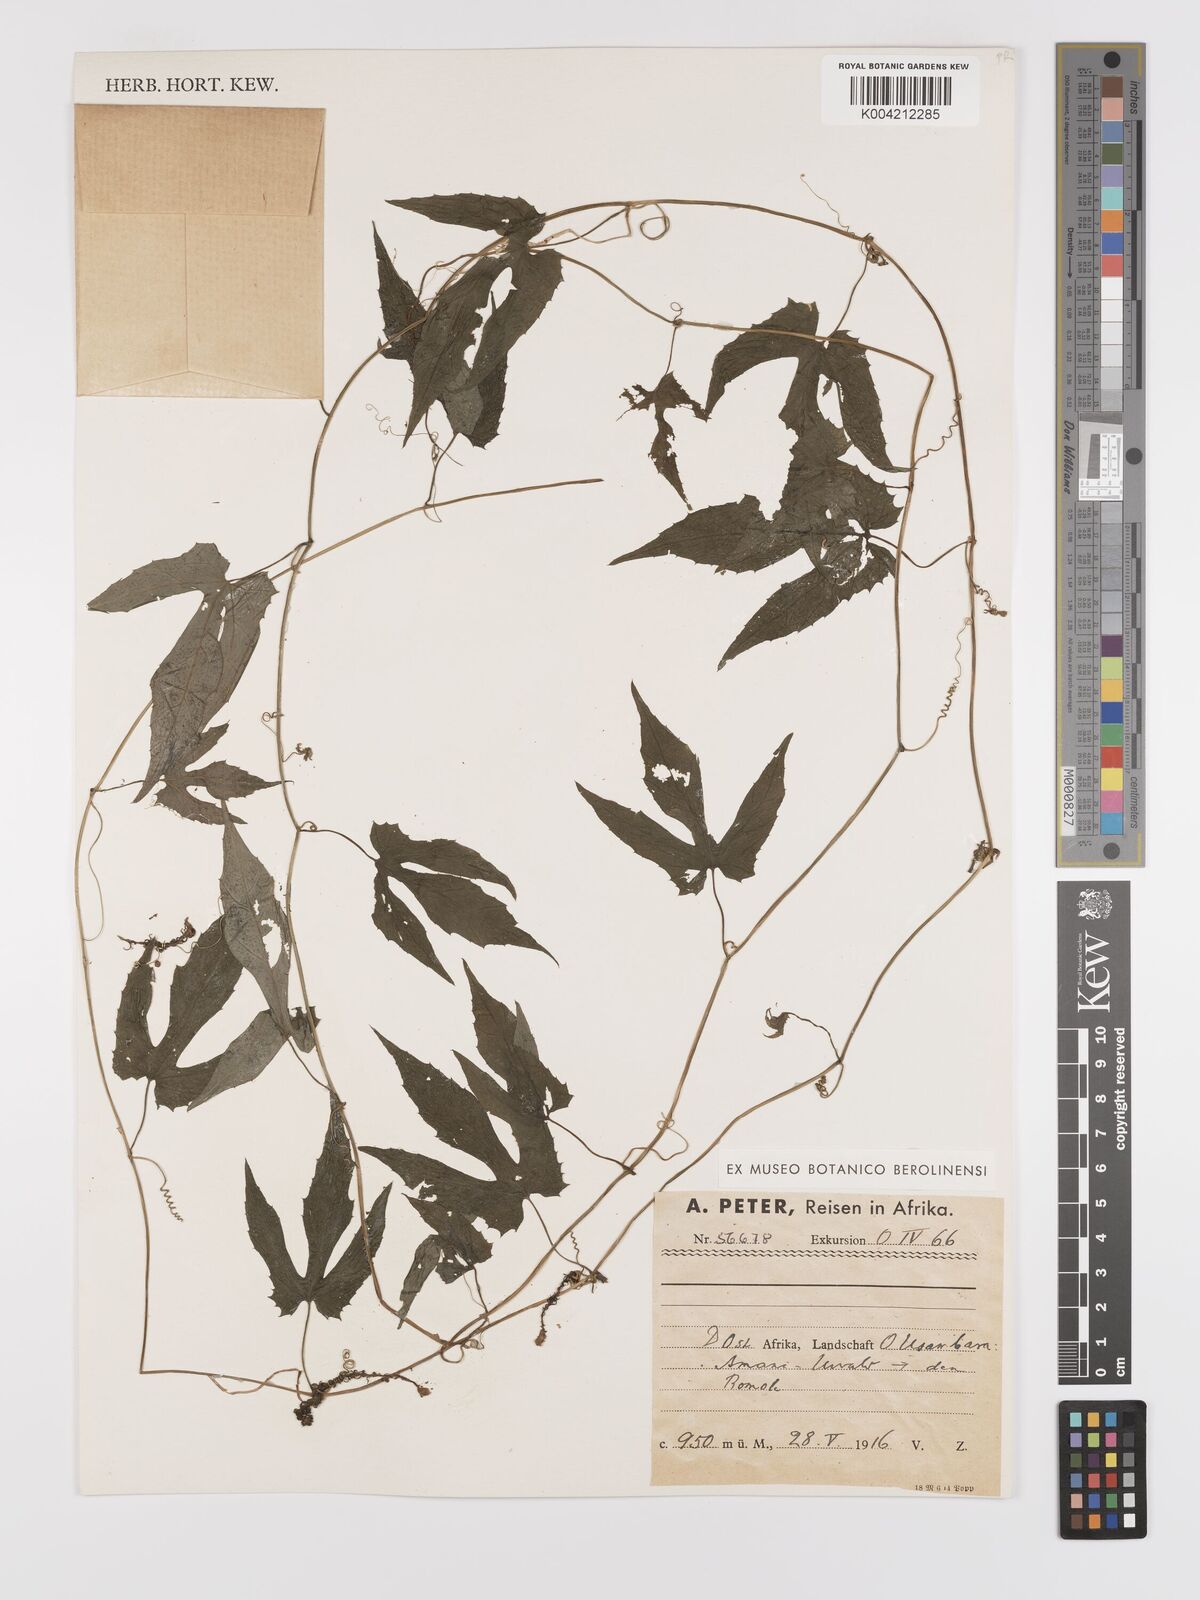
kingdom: Plantae
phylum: Tracheophyta
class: Magnoliopsida
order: Cucurbitales
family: Cucurbitaceae
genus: Kedrostis
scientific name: Kedrostis heterophylla
